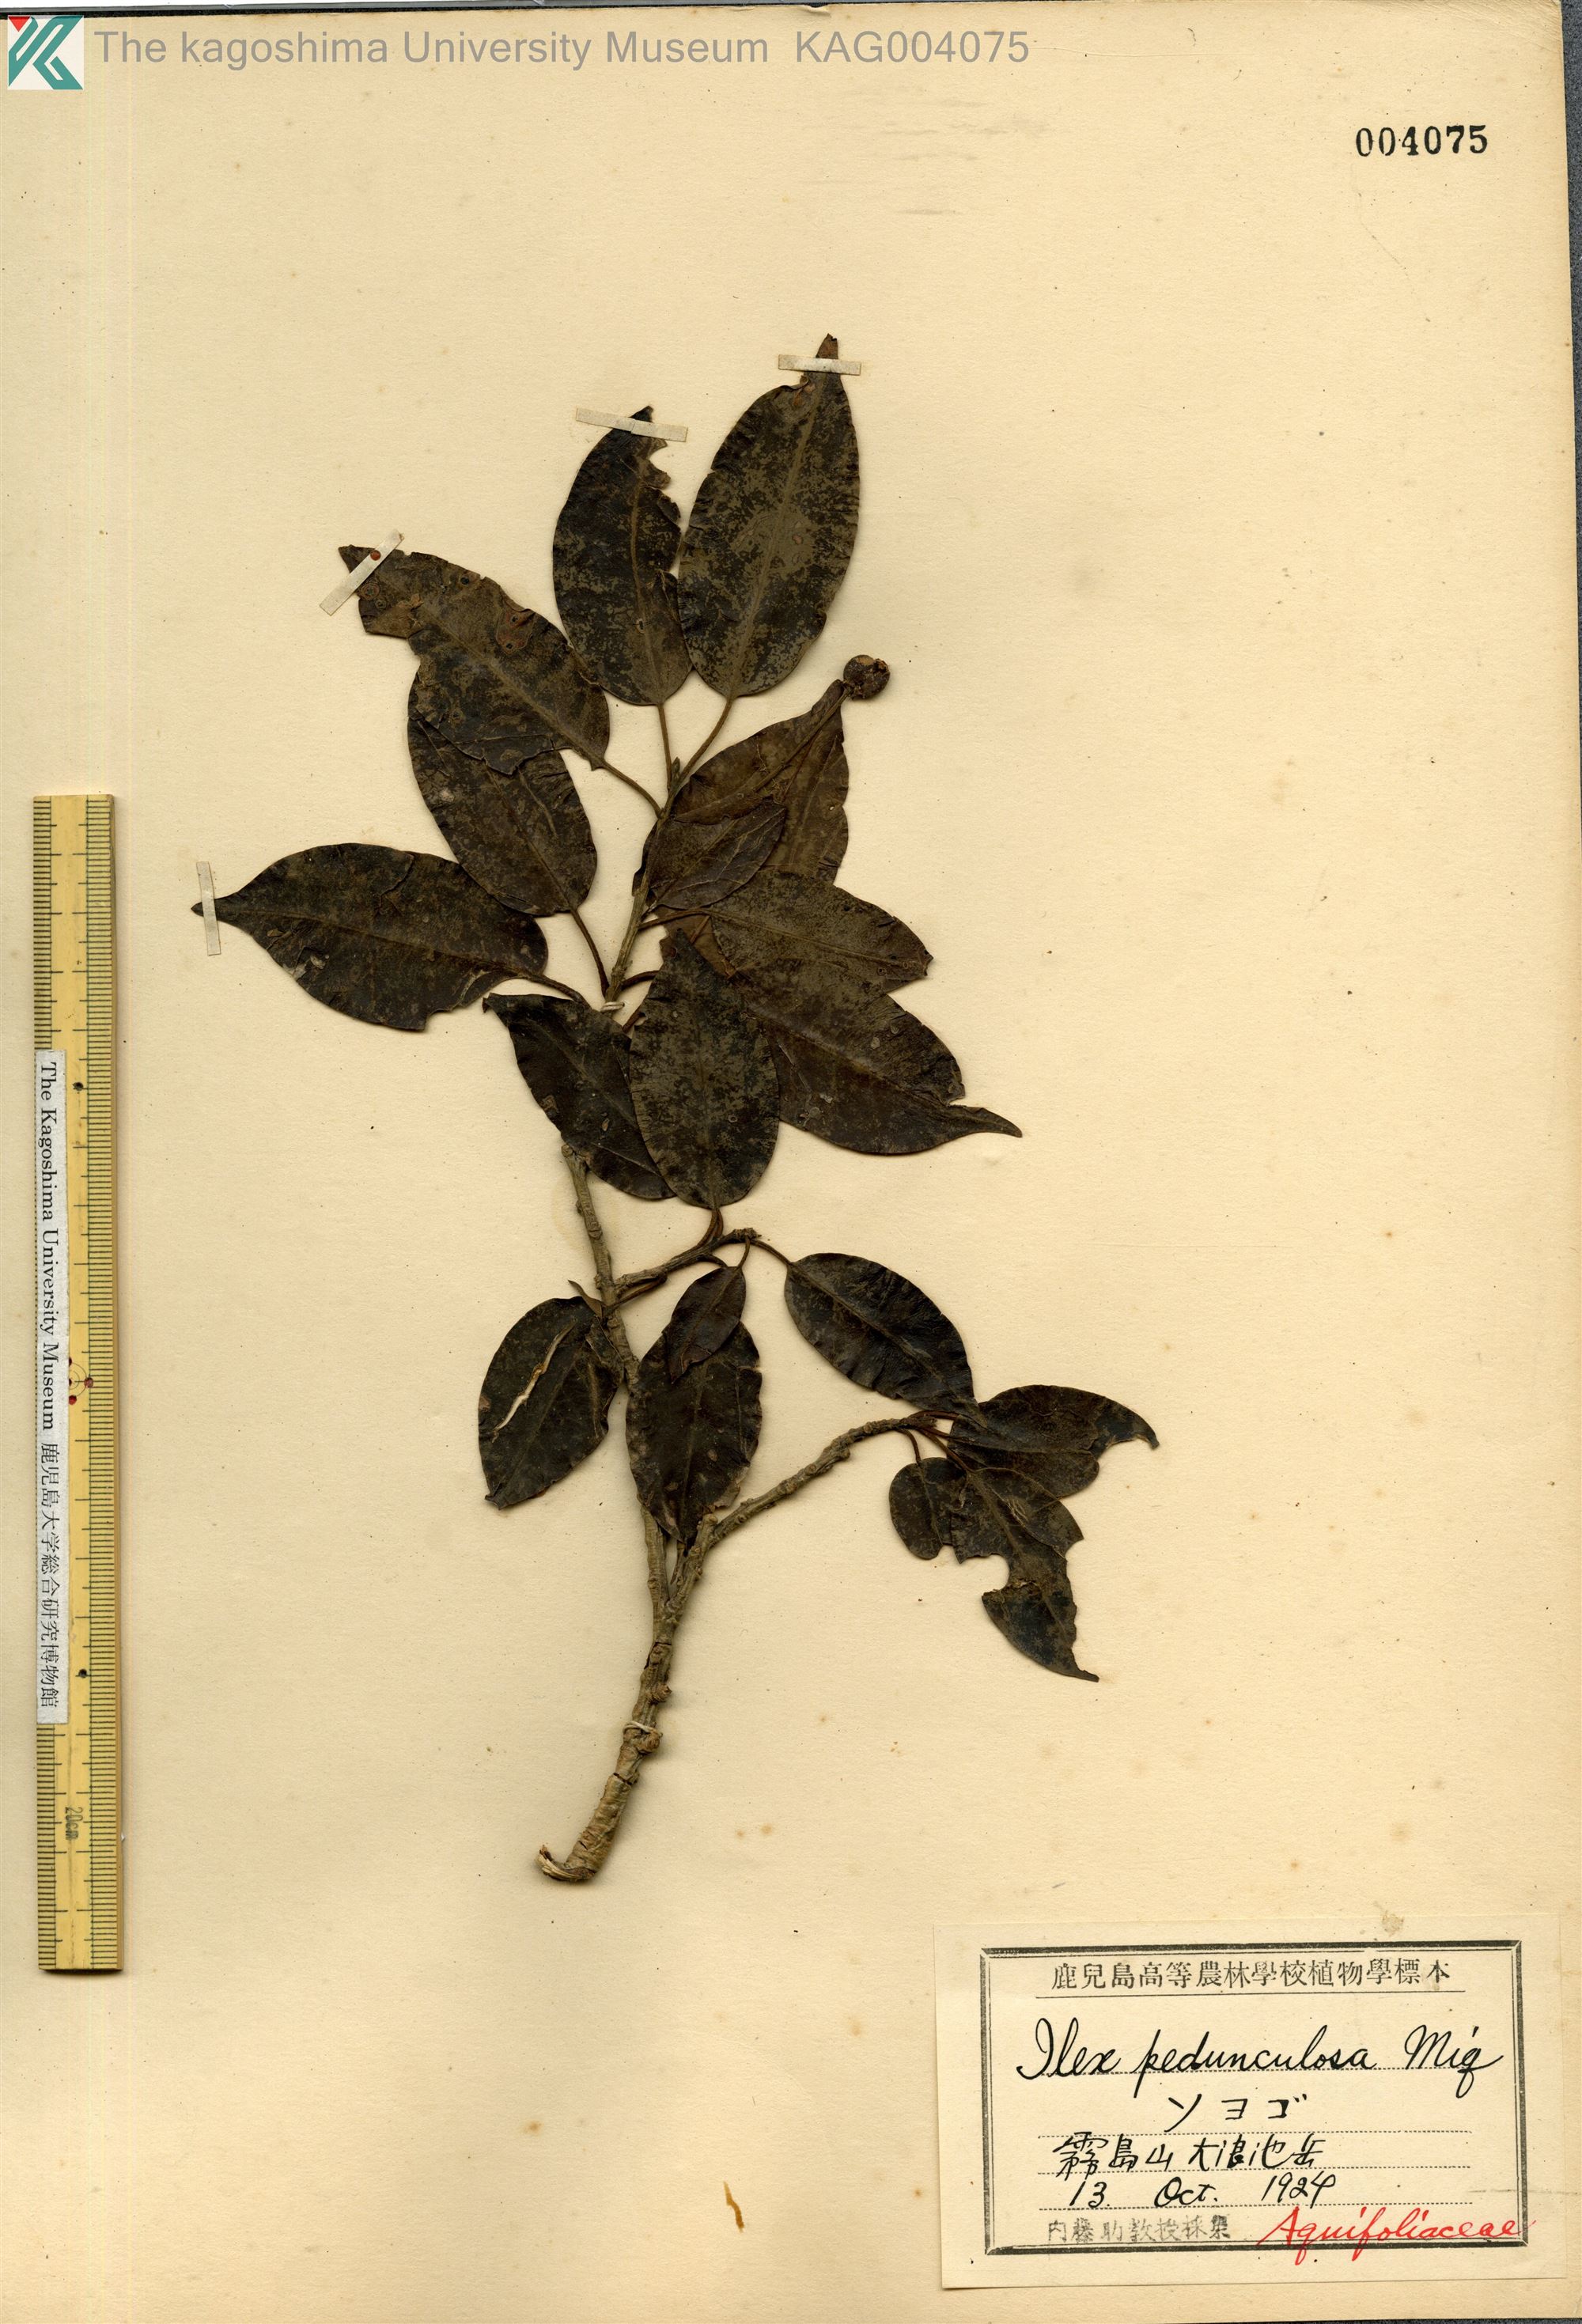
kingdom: Plantae
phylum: Tracheophyta
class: Magnoliopsida
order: Aquifoliales
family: Aquifoliaceae
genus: Ilex
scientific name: Ilex pedunculosa
